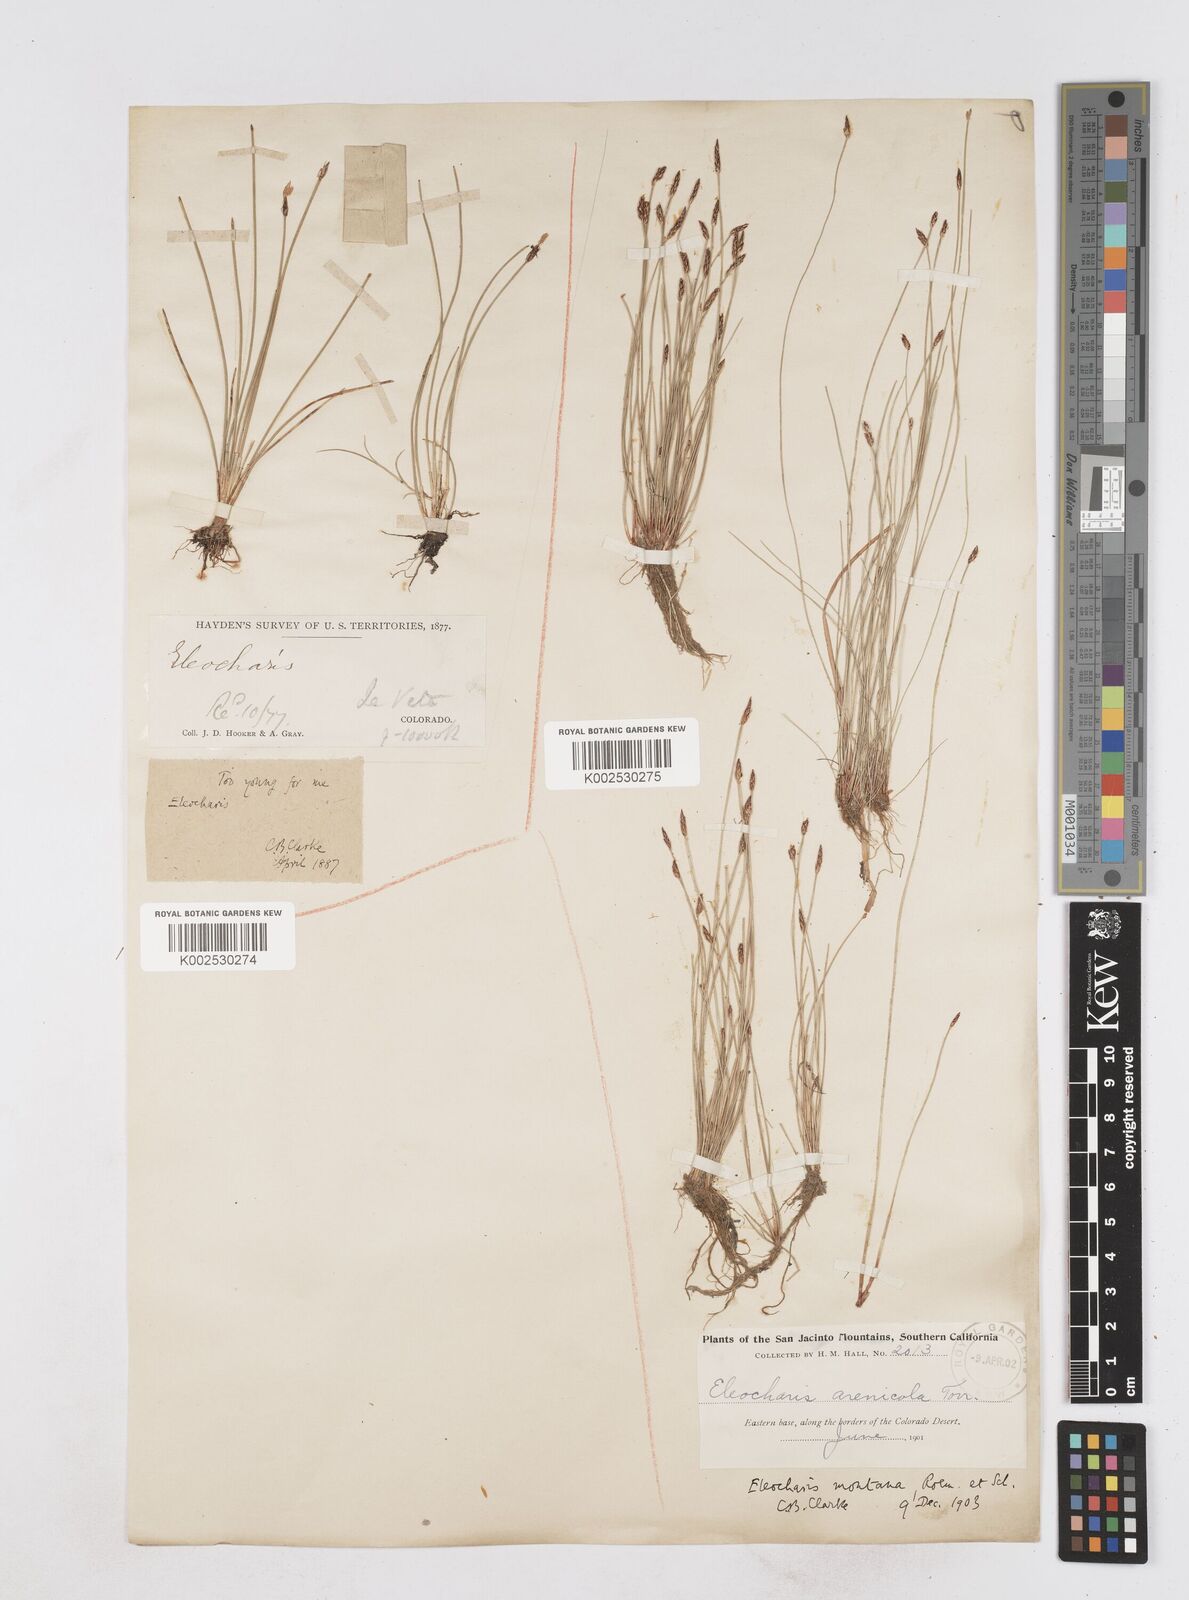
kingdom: Plantae
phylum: Tracheophyta
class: Liliopsida
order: Poales
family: Cyperaceae
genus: Eleocharis
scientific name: Eleocharis macounii
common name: Macoun's spikerush
